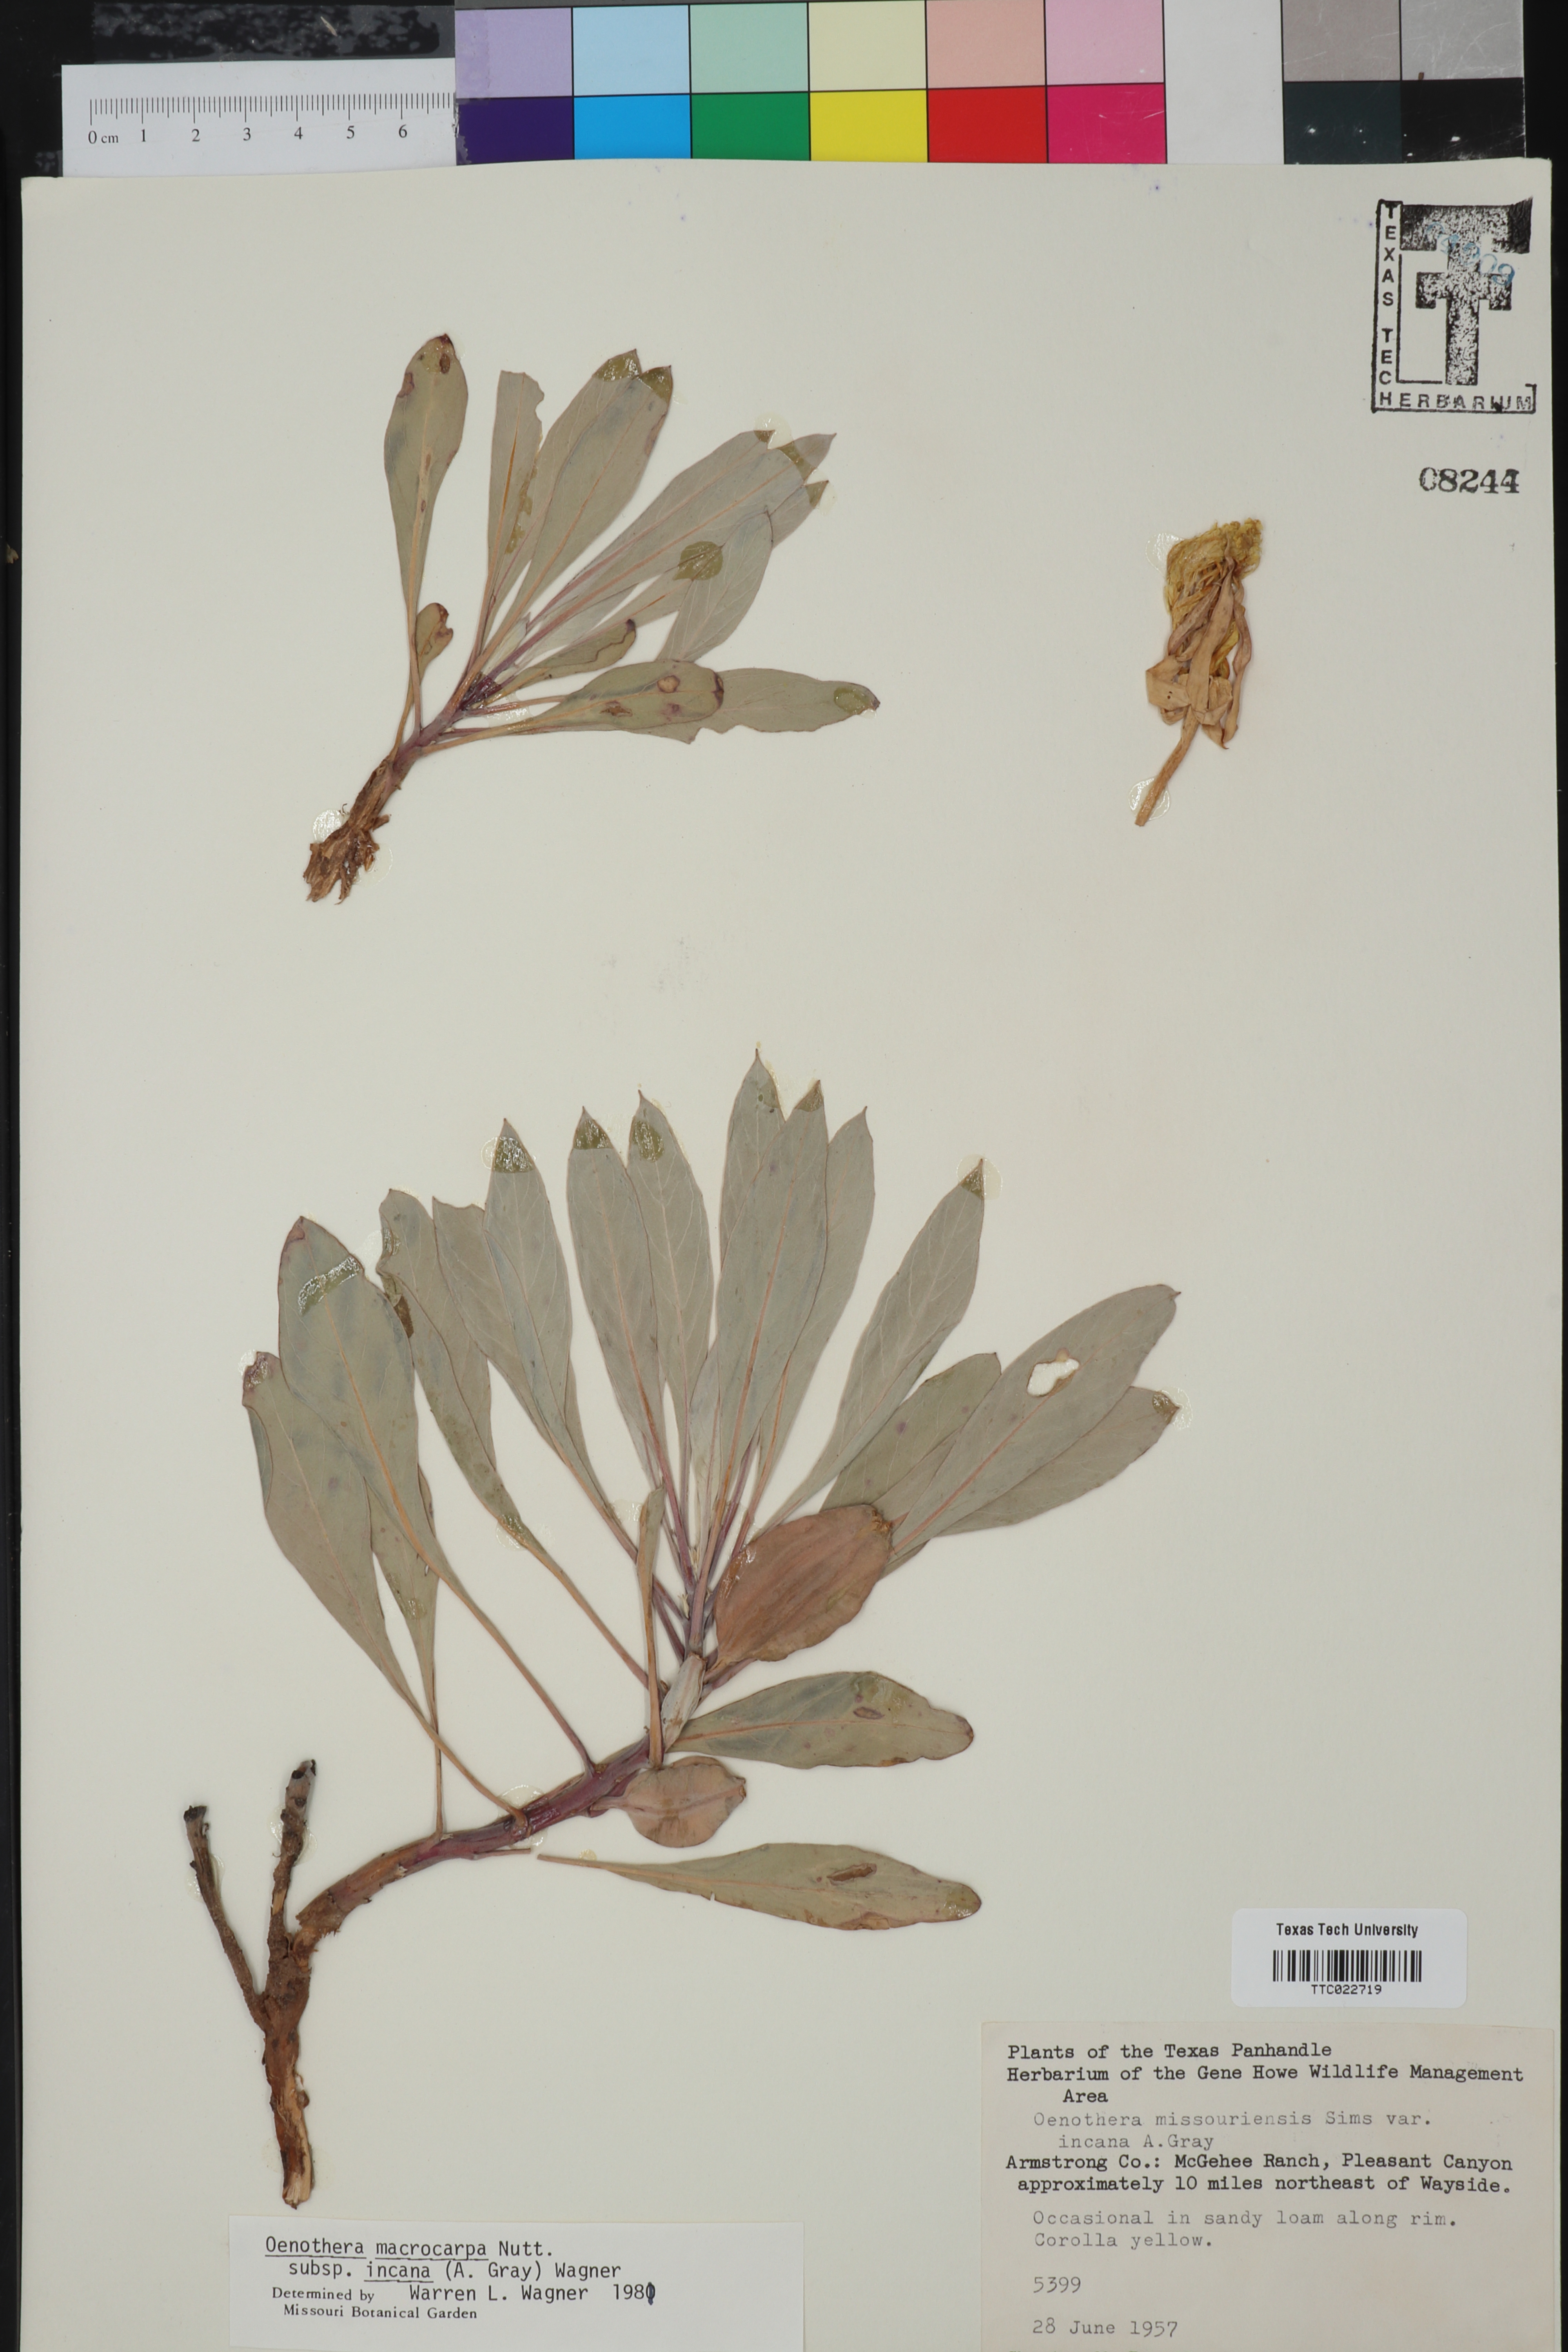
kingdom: Plantae
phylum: Tracheophyta
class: Magnoliopsida
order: Myrtales
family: Onagraceae
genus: Oenothera
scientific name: Oenothera macrocarpa
